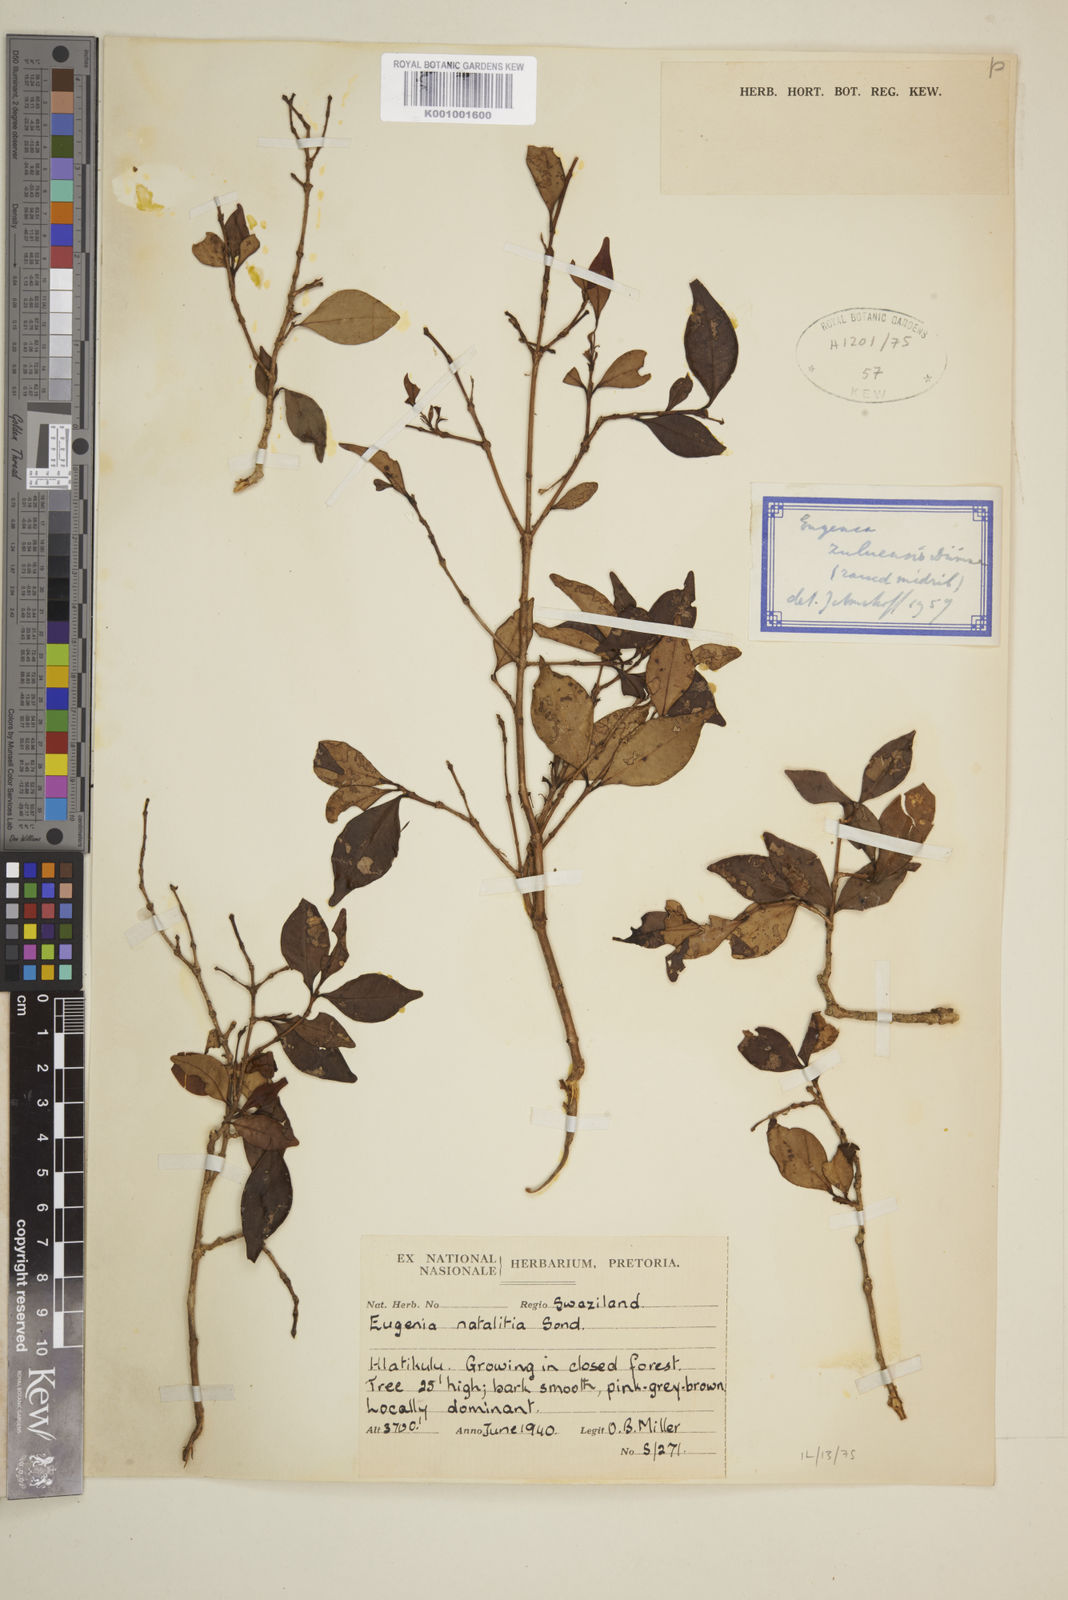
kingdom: Plantae
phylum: Tracheophyta
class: Magnoliopsida
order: Myrtales
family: Myrtaceae
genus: Eugenia
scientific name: Eugenia natalitia
